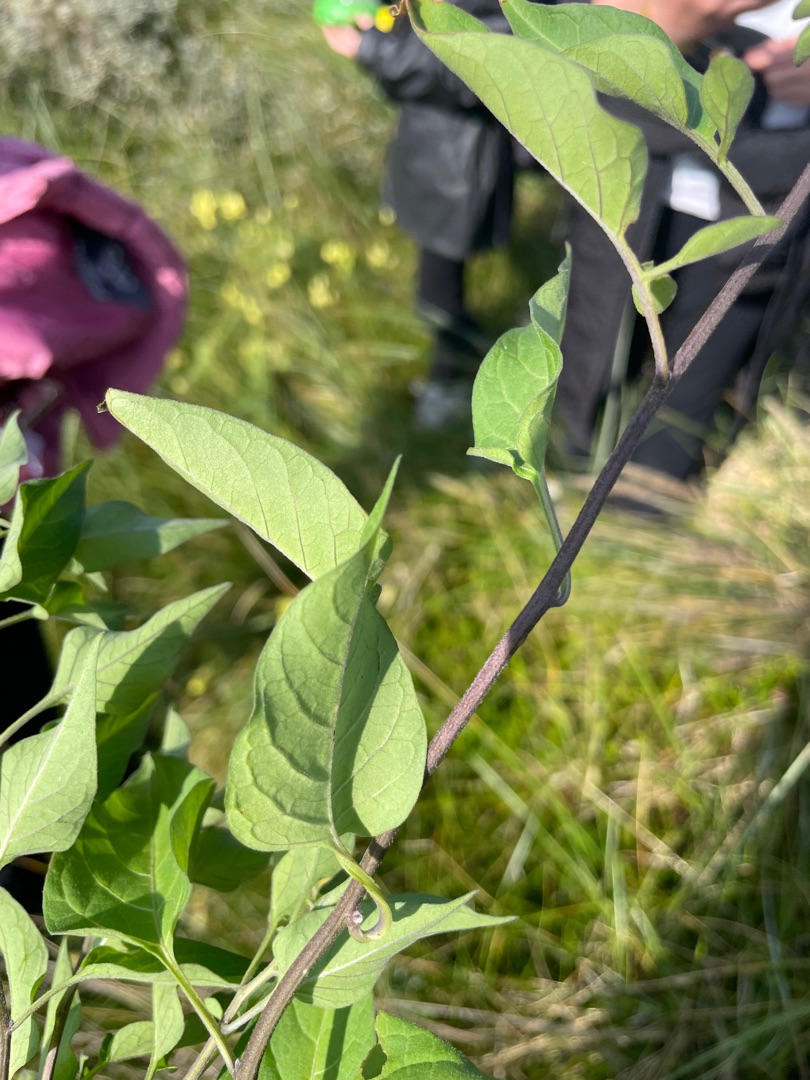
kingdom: Plantae
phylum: Tracheophyta
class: Magnoliopsida
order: Solanales
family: Solanaceae
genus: Solanum
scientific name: Solanum dulcamara
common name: Bittersød natskygge
